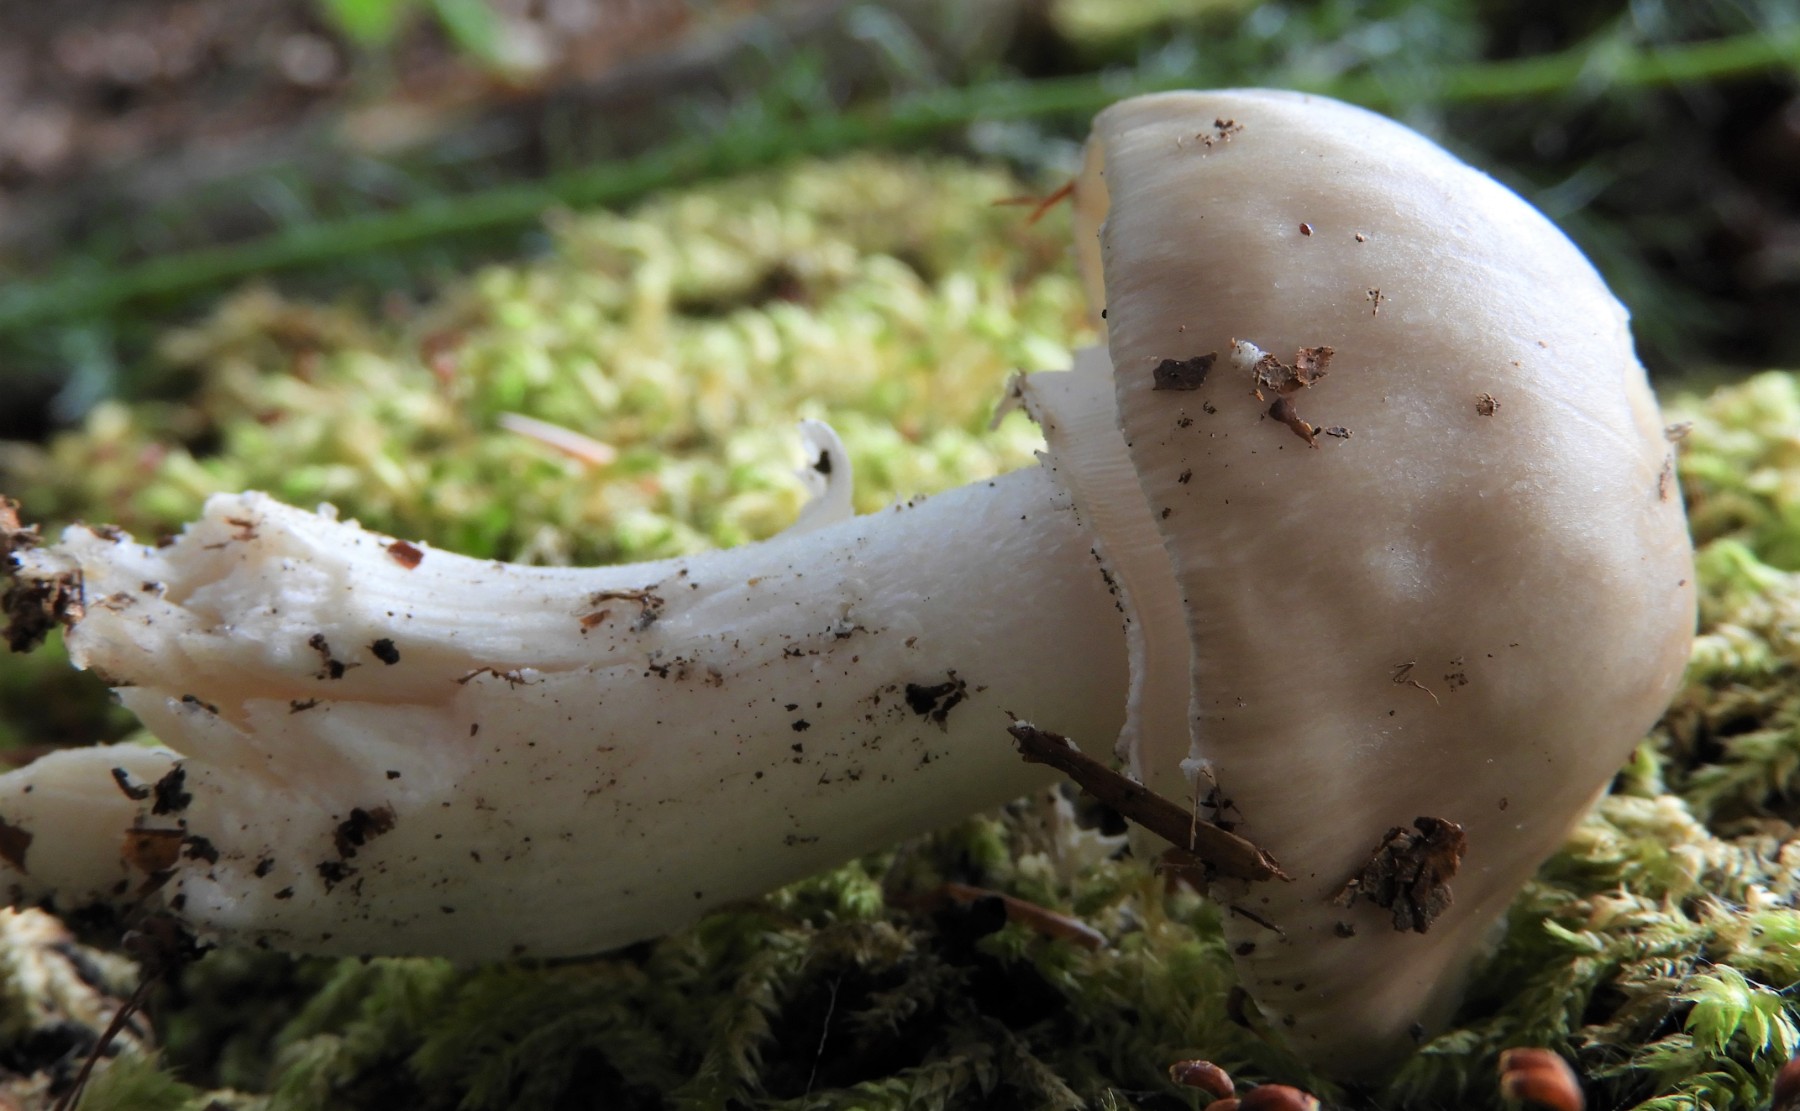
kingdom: Fungi
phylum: Basidiomycota
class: Agaricomycetes
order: Agaricales
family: Amanitaceae
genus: Amanita
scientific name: Amanita
